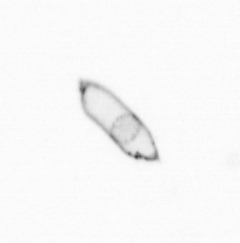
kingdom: Chromista
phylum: Ochrophyta
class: Bacillariophyceae
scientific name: Bacillariophyceae
